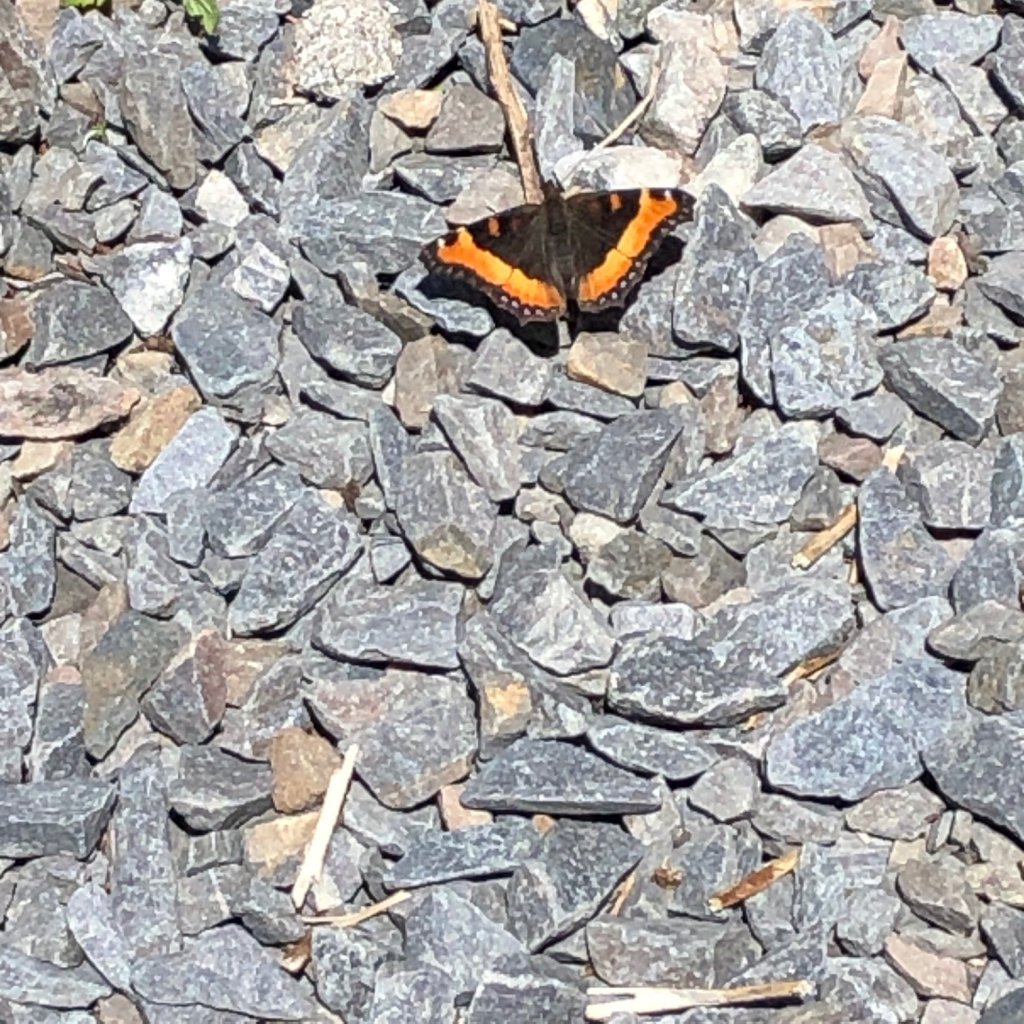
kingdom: Animalia
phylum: Arthropoda
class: Insecta
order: Lepidoptera
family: Nymphalidae
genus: Aglais
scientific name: Aglais milberti
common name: Milbert's Tortoiseshell
